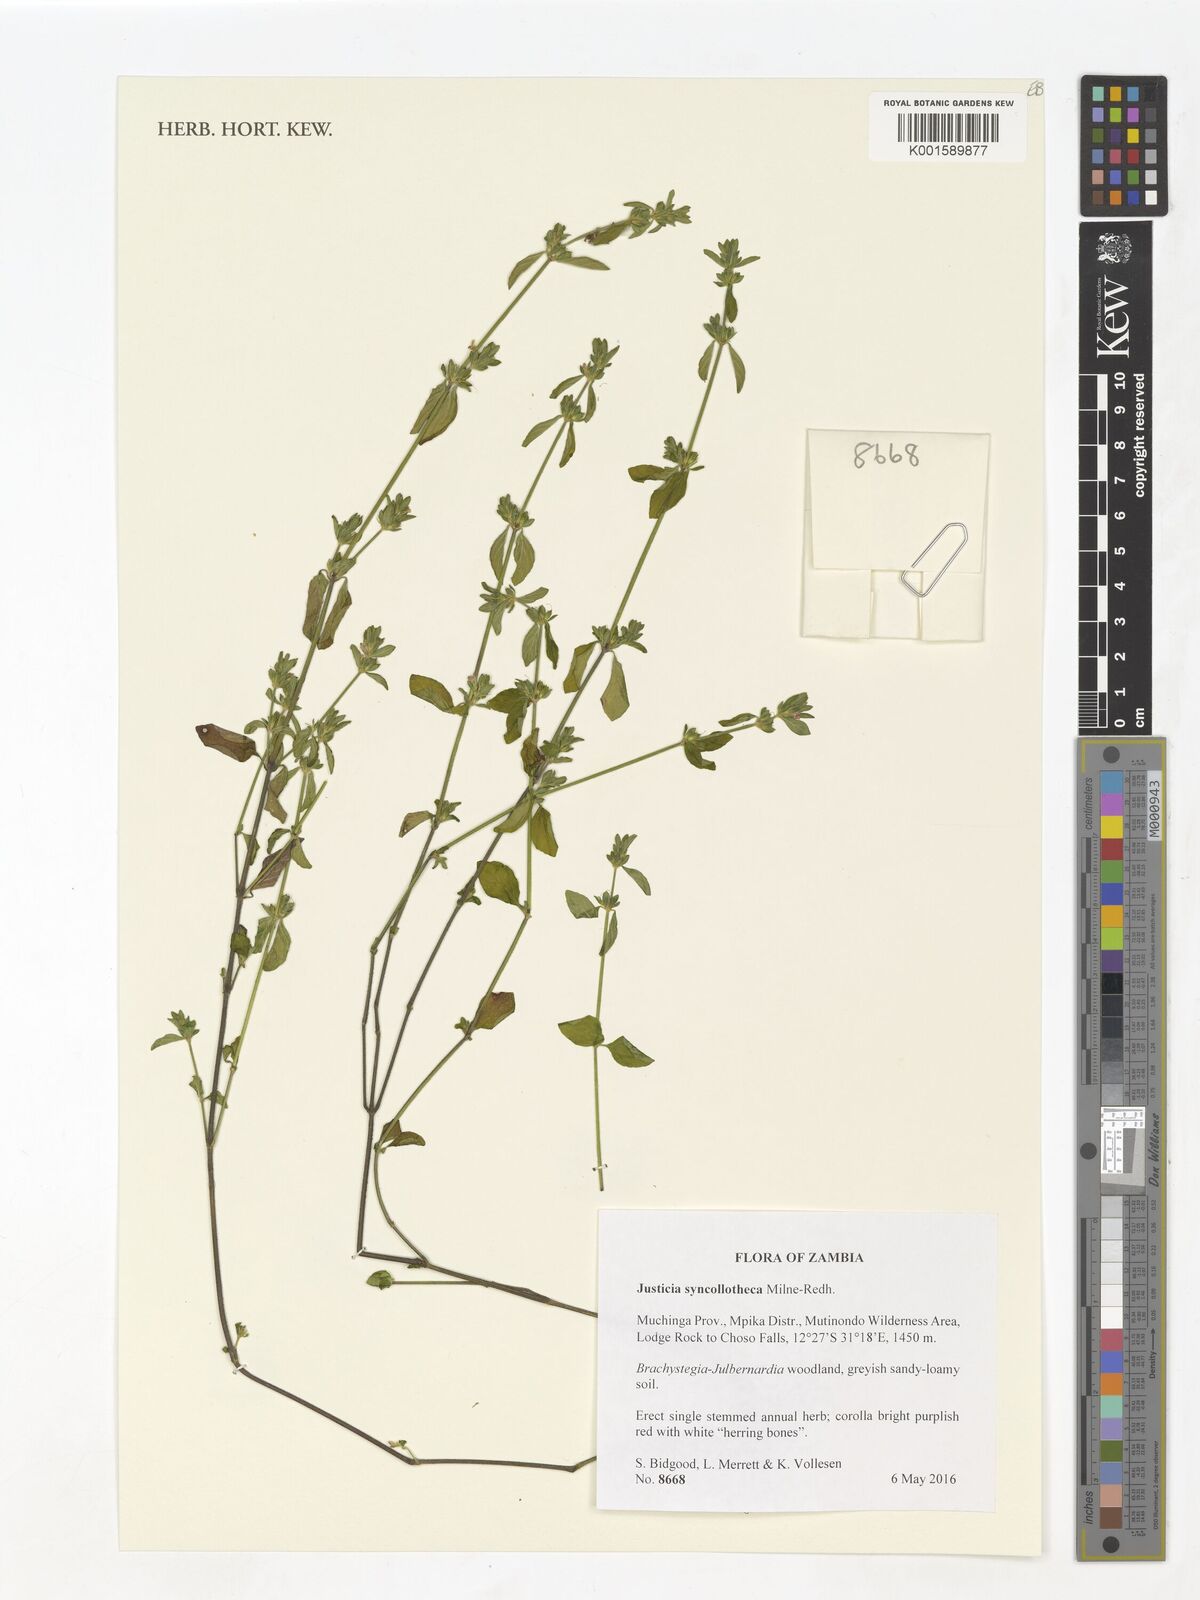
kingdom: Plantae
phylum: Tracheophyta
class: Magnoliopsida
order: Lamiales
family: Acanthaceae
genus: Justicia
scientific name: Justicia syncollotheca
